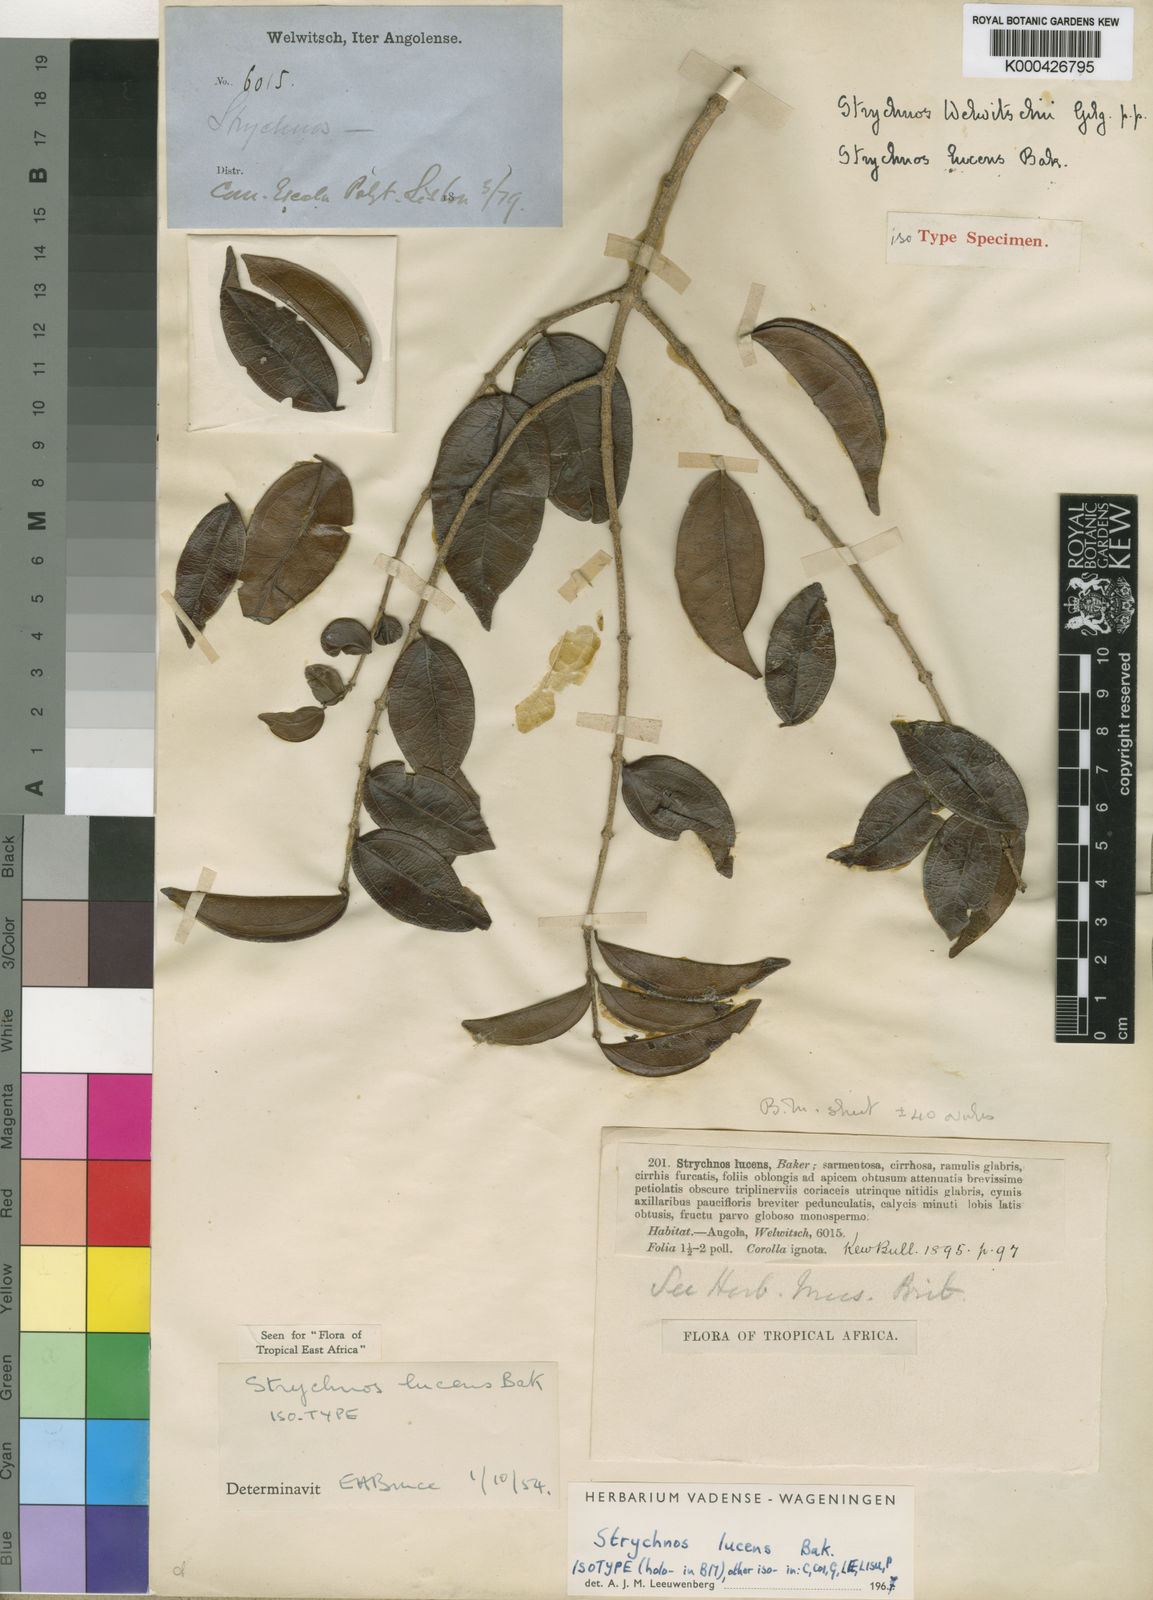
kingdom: Plantae
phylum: Tracheophyta
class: Magnoliopsida
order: Gentianales
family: Loganiaceae
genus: Strychnos
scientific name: Strychnos lucens
